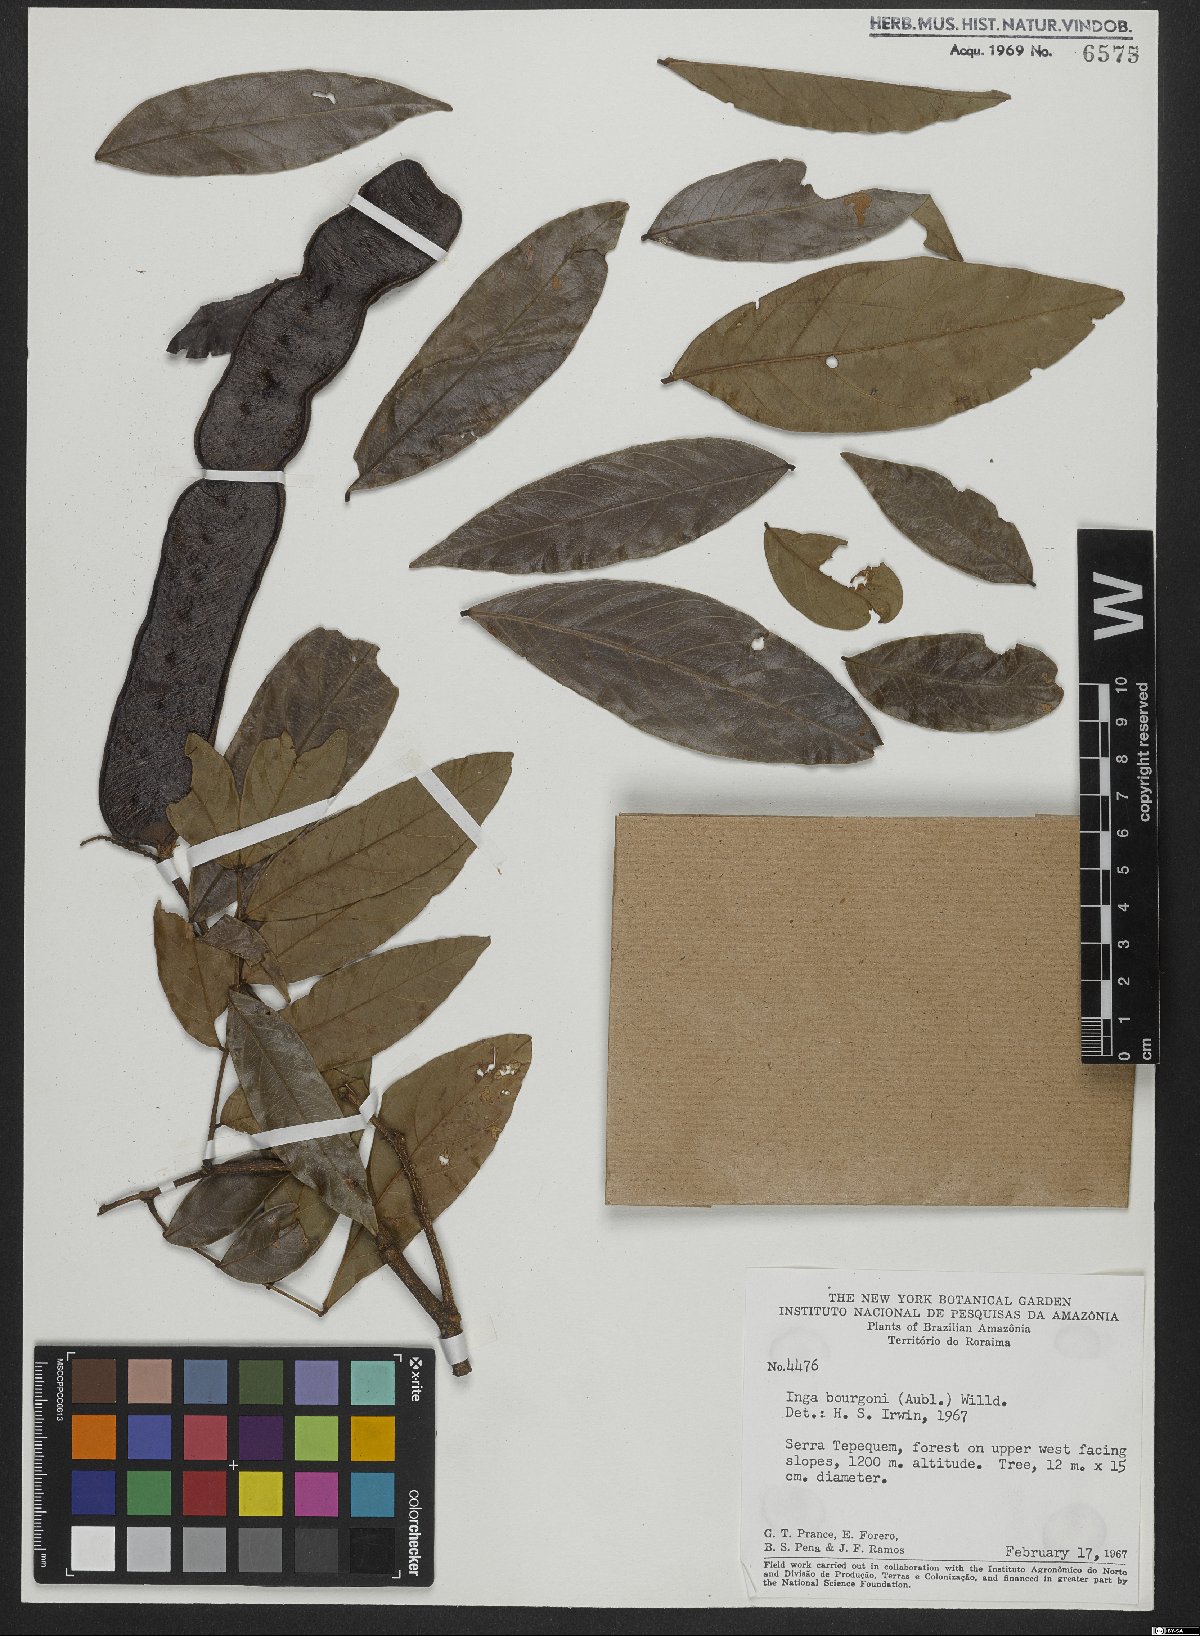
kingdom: Plantae
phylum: Tracheophyta
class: Magnoliopsida
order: Fabales
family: Fabaceae
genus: Inga
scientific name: Inga bourgoni
